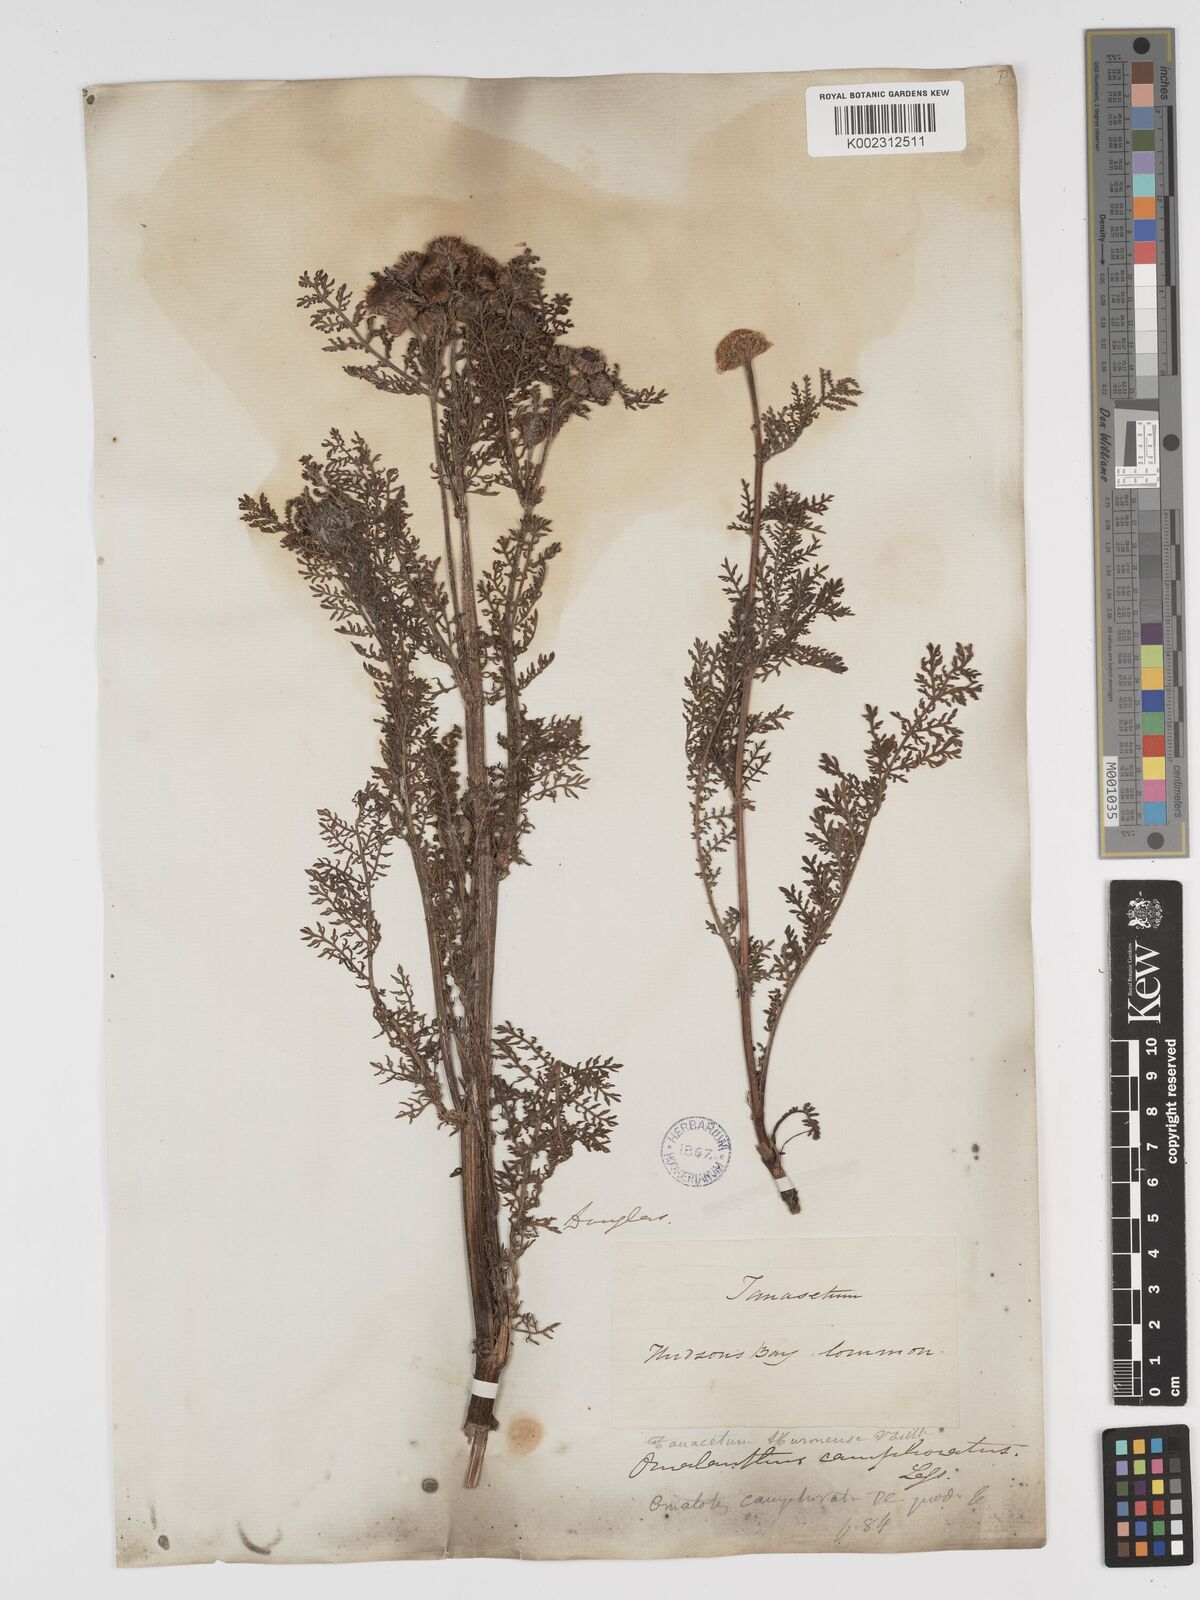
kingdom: Plantae
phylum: Tracheophyta
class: Magnoliopsida
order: Asterales
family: Asteraceae
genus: Tanacetum
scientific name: Tanacetum bipinnatum
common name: Dwarf tansy
